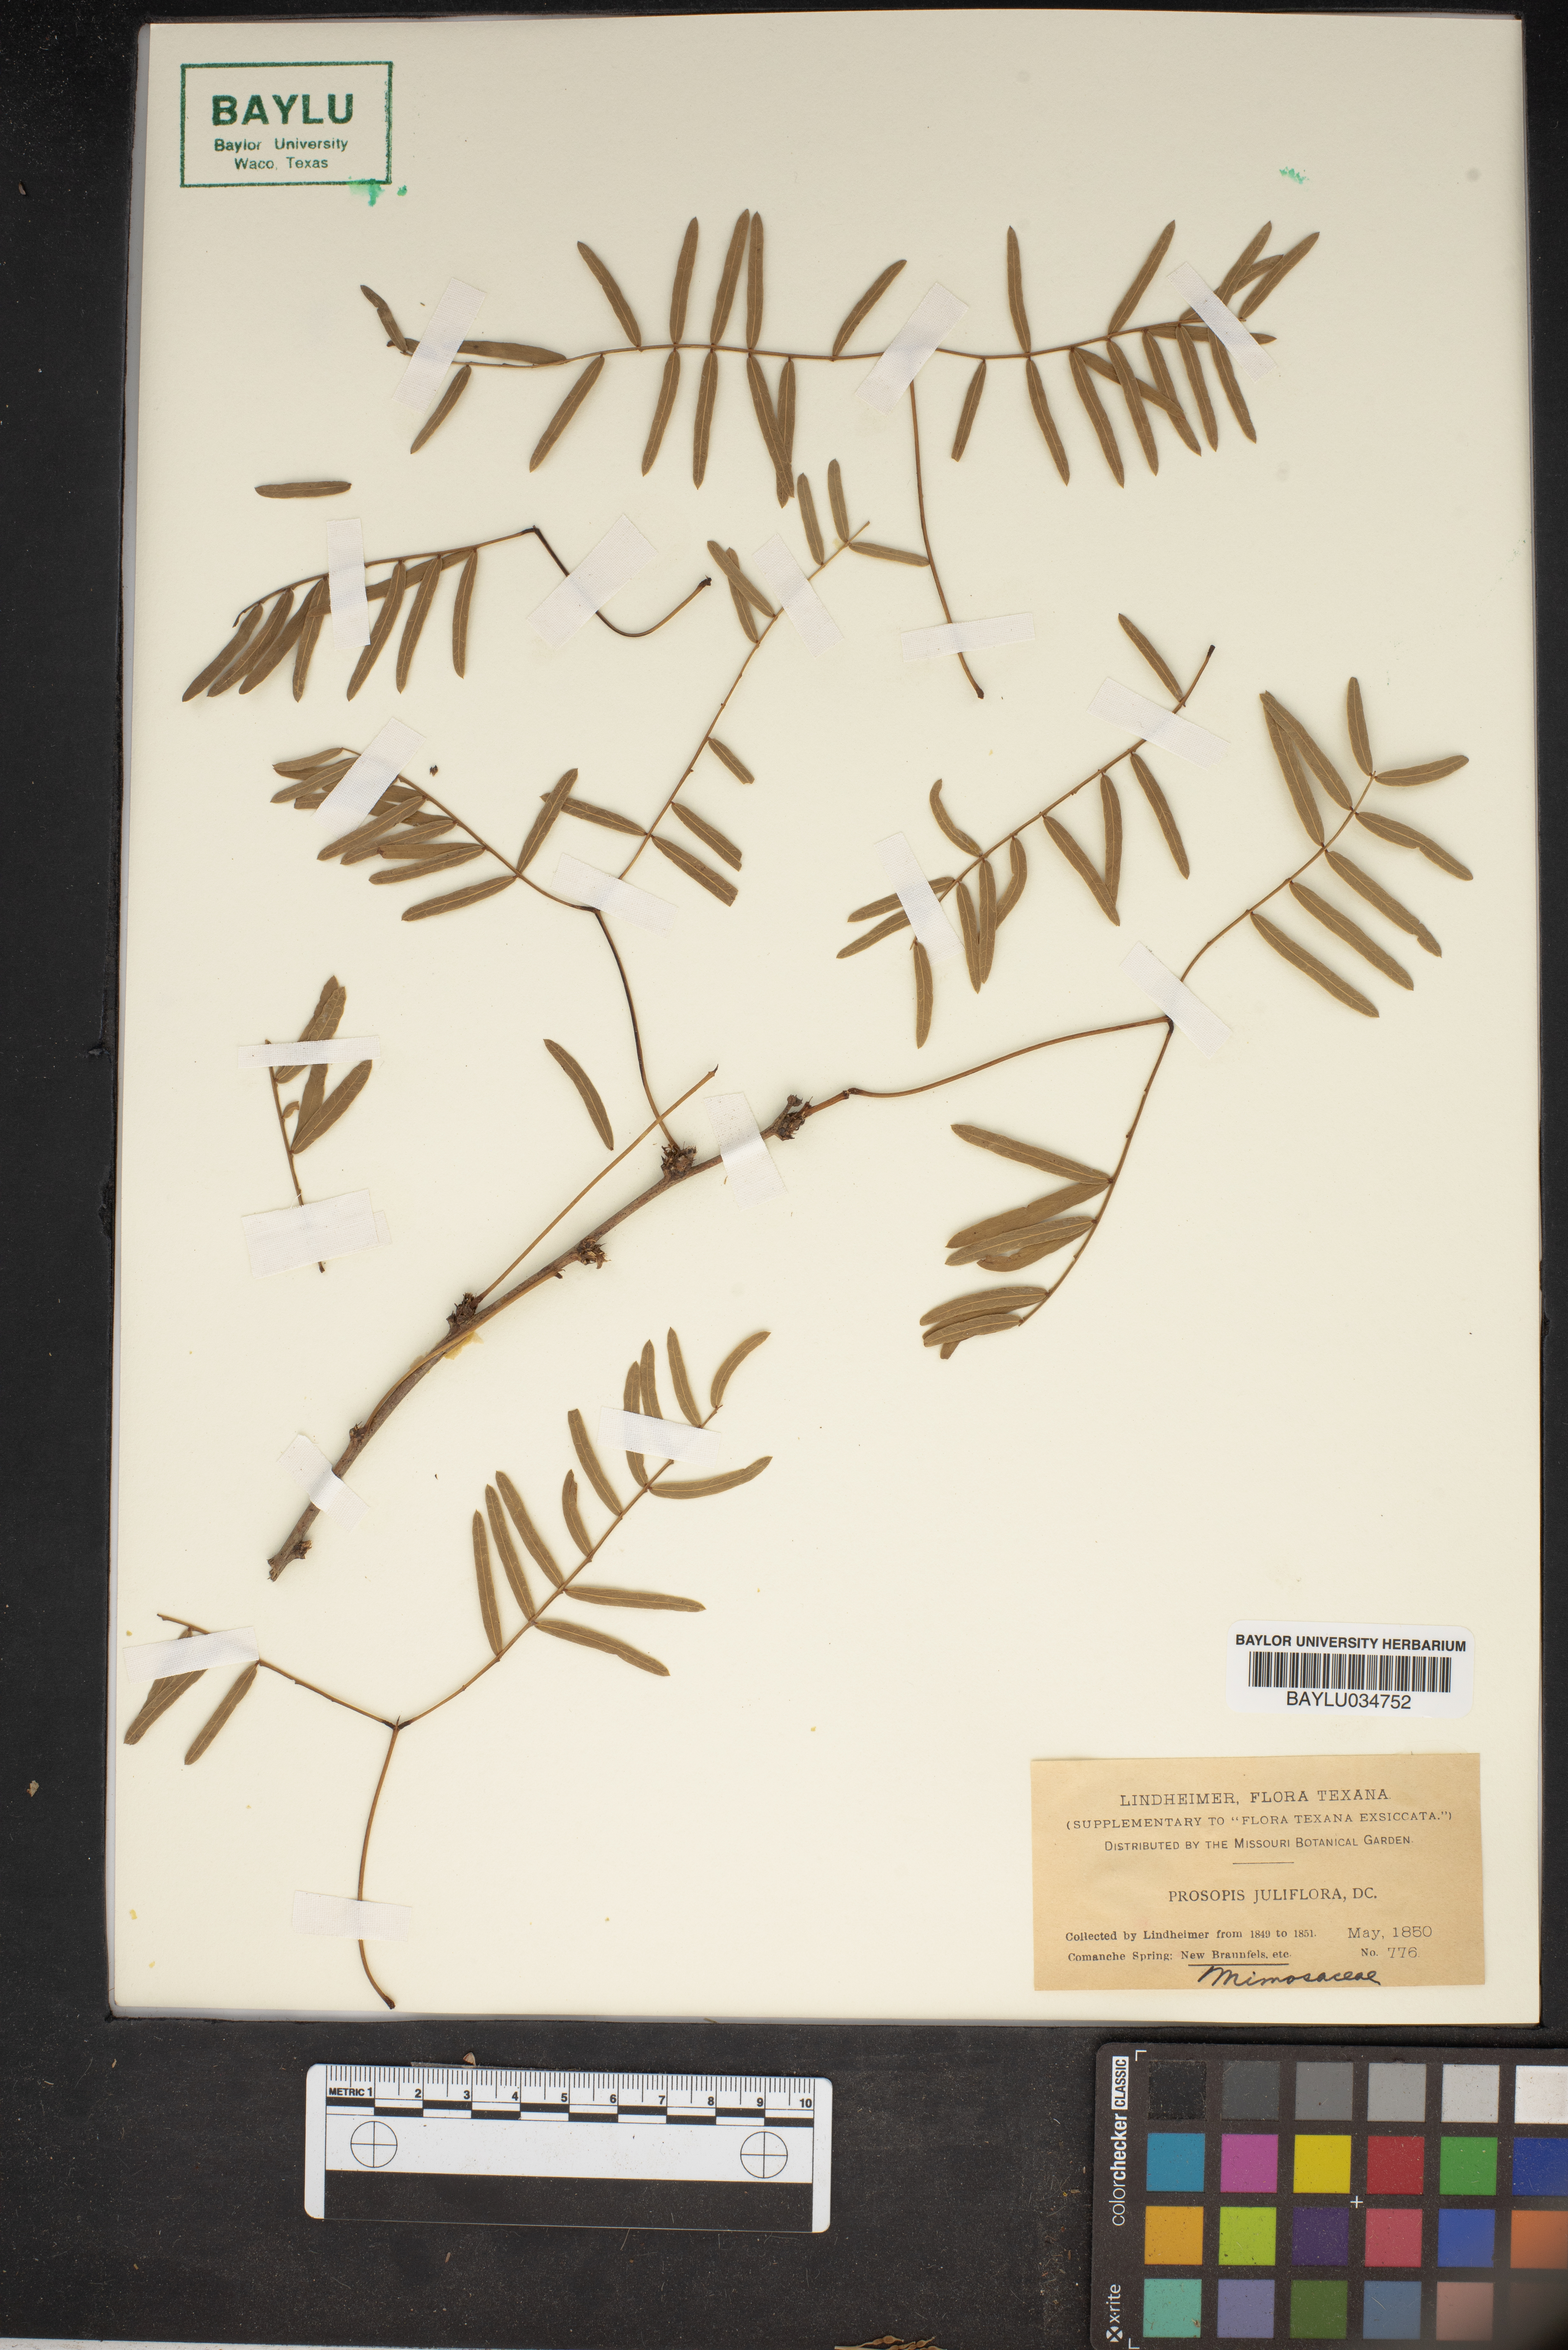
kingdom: Plantae
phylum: Tracheophyta
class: Magnoliopsida
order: Fabales
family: Fabaceae
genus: Prosopis
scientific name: Prosopis juliflora
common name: Mesquite
